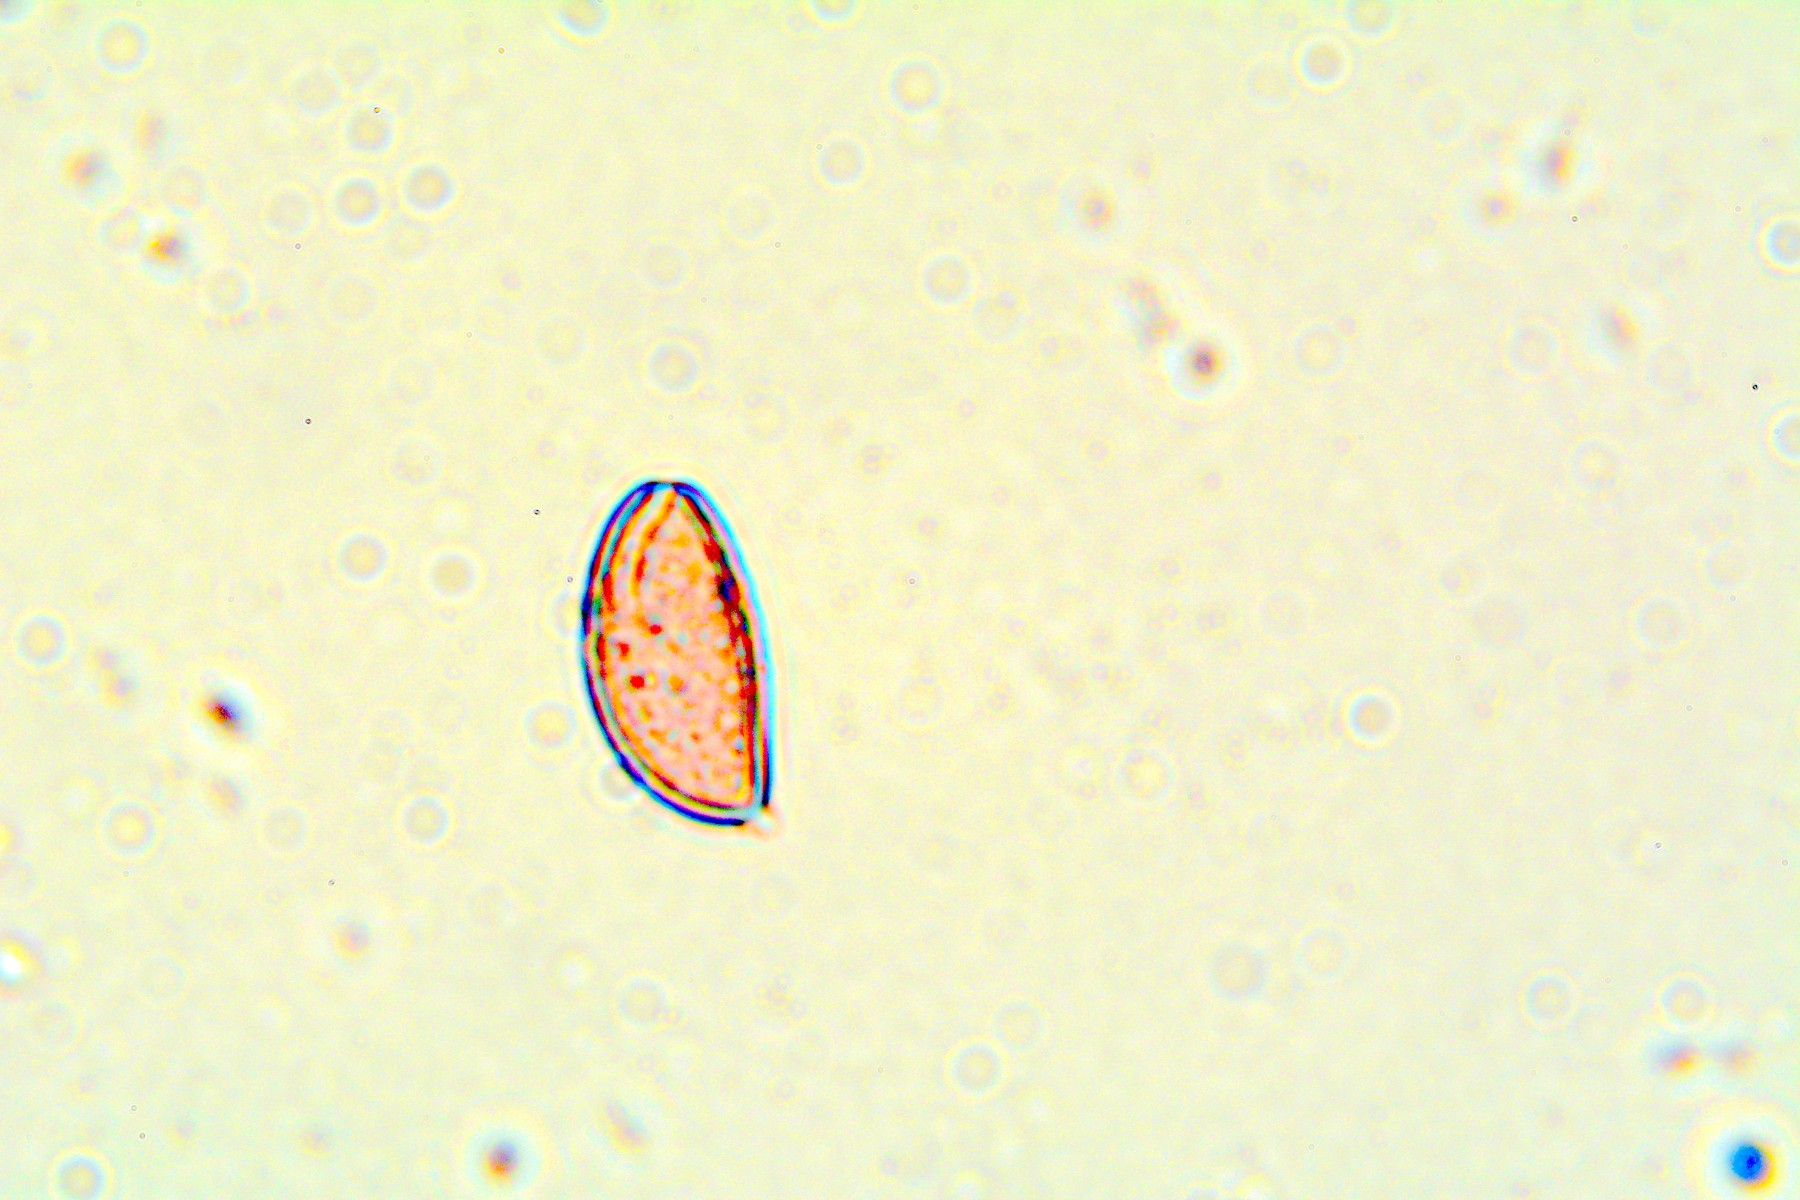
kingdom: Fungi
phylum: Basidiomycota
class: Agaricomycetes
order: Agaricales
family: Strophariaceae
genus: Bogbodia
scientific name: Bogbodia uda
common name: tørve-svovlhat
